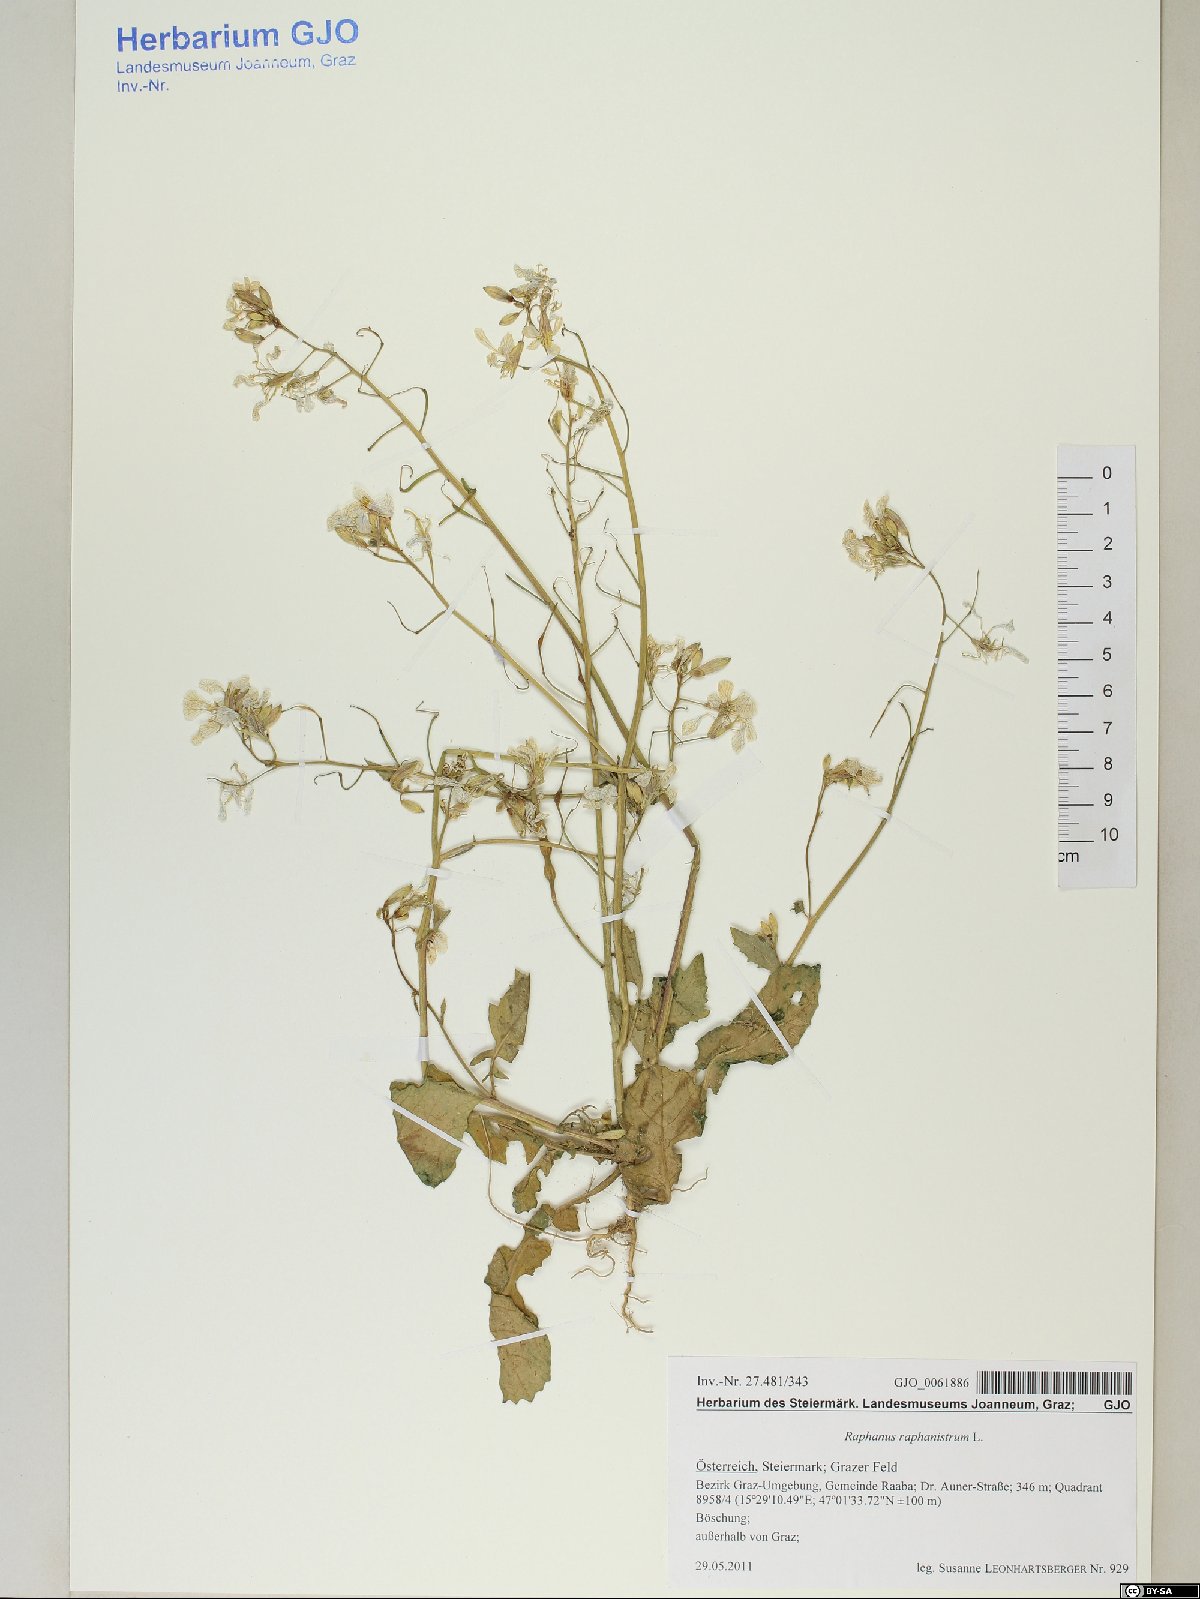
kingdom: Plantae
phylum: Tracheophyta
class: Magnoliopsida
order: Brassicales
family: Brassicaceae
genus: Raphanus
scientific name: Raphanus raphanistrum
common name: Wild radish
